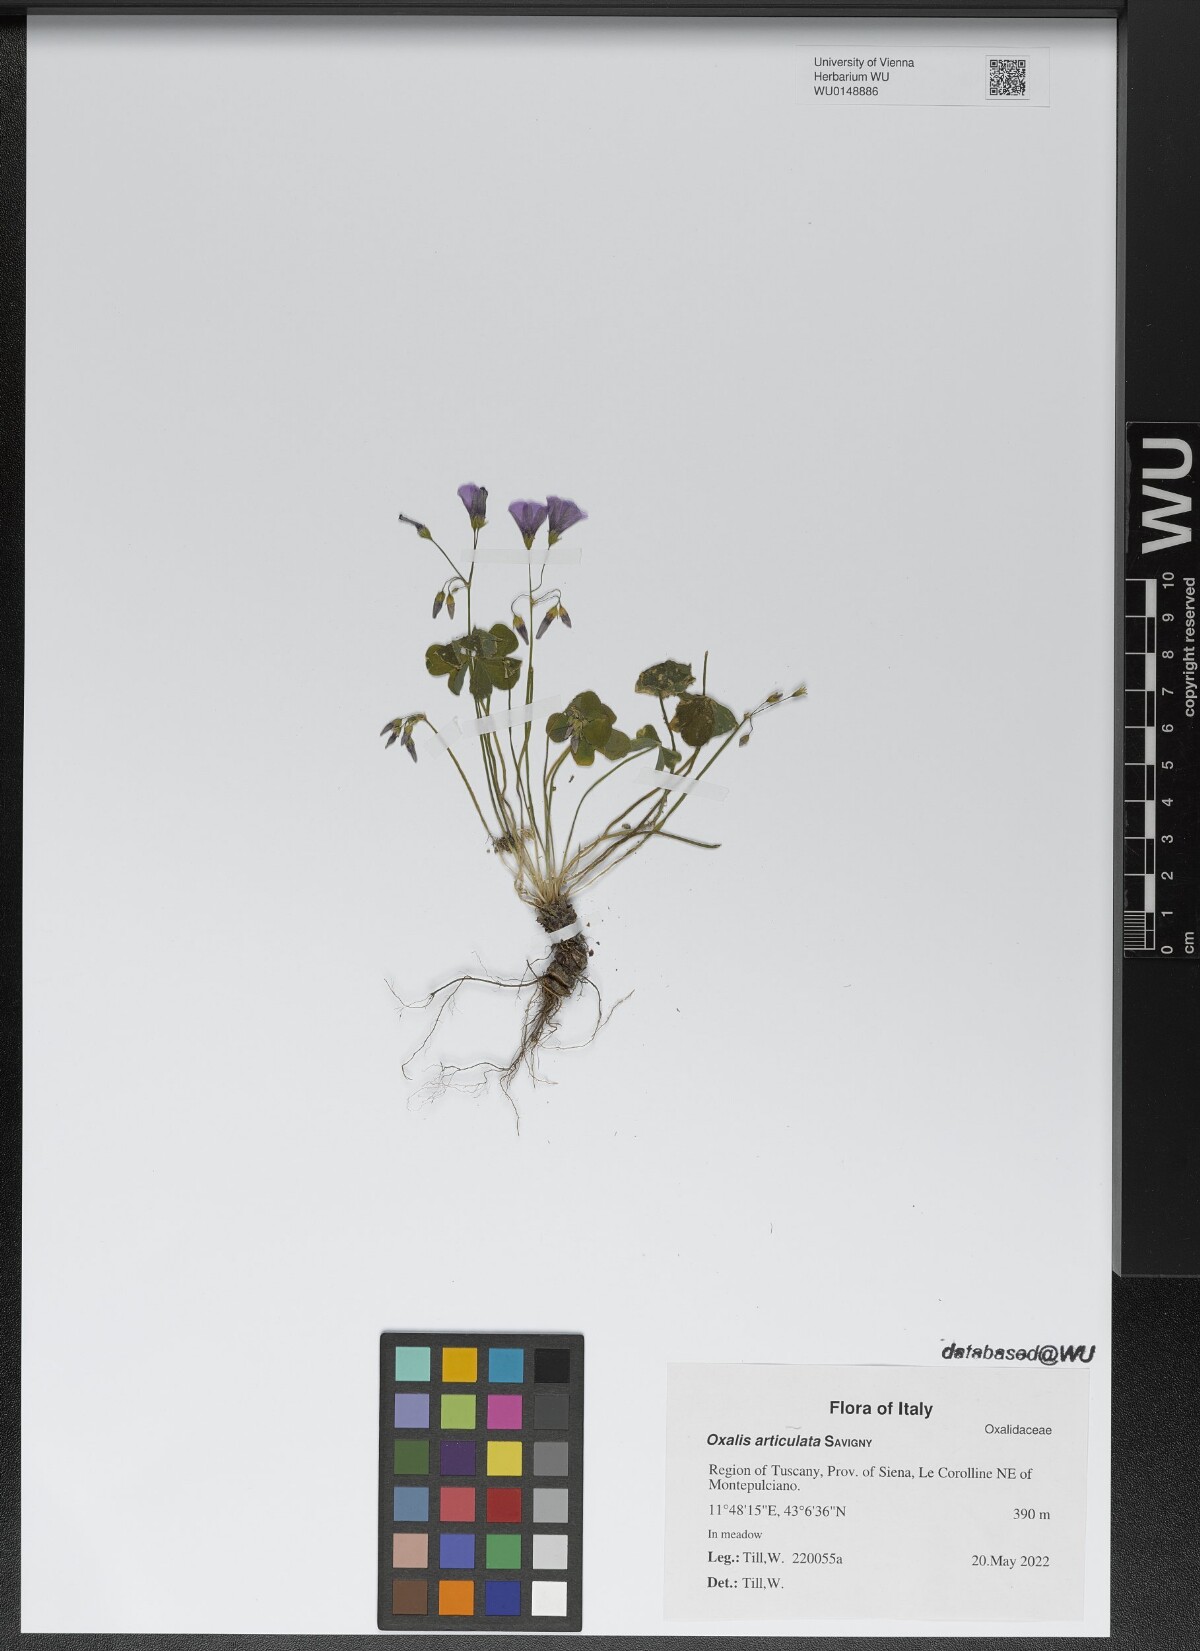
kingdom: Plantae
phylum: Tracheophyta
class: Magnoliopsida
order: Oxalidales
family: Oxalidaceae
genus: Oxalis
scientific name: Oxalis articulata
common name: Pink-sorrel
